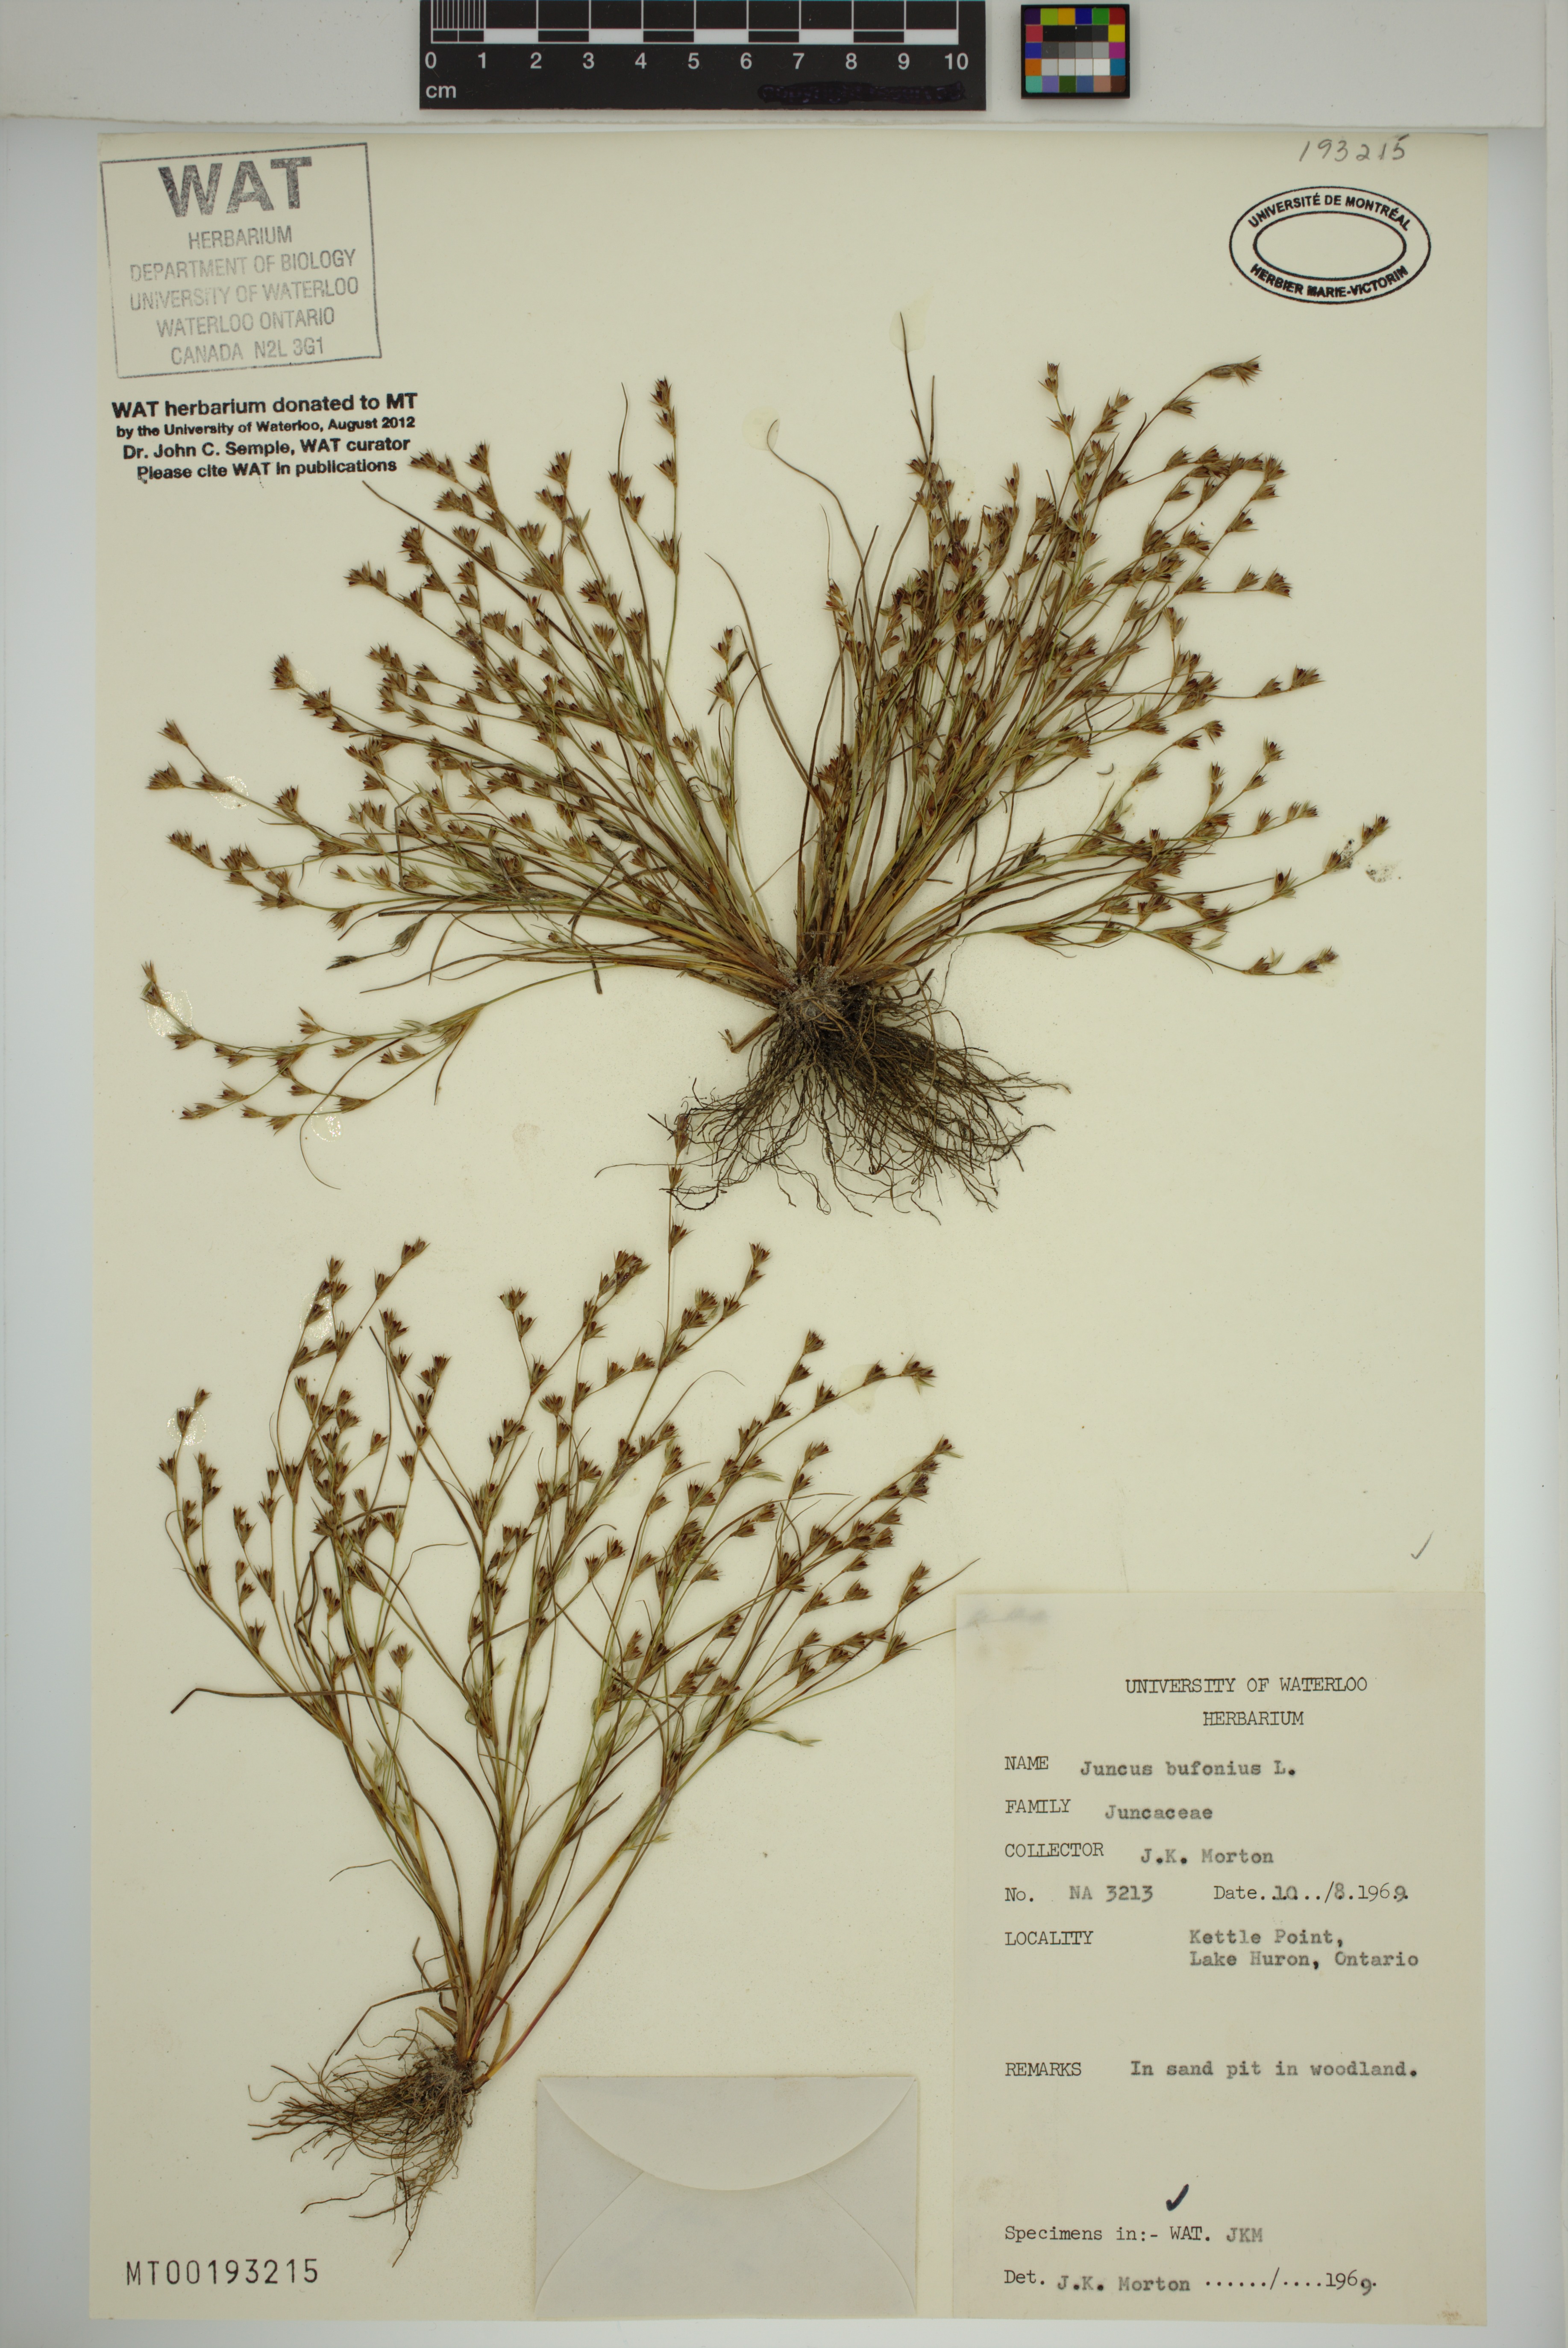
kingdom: Plantae
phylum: Tracheophyta
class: Liliopsida
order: Poales
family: Juncaceae
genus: Juncus
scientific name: Juncus bufonius
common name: Toad rush
